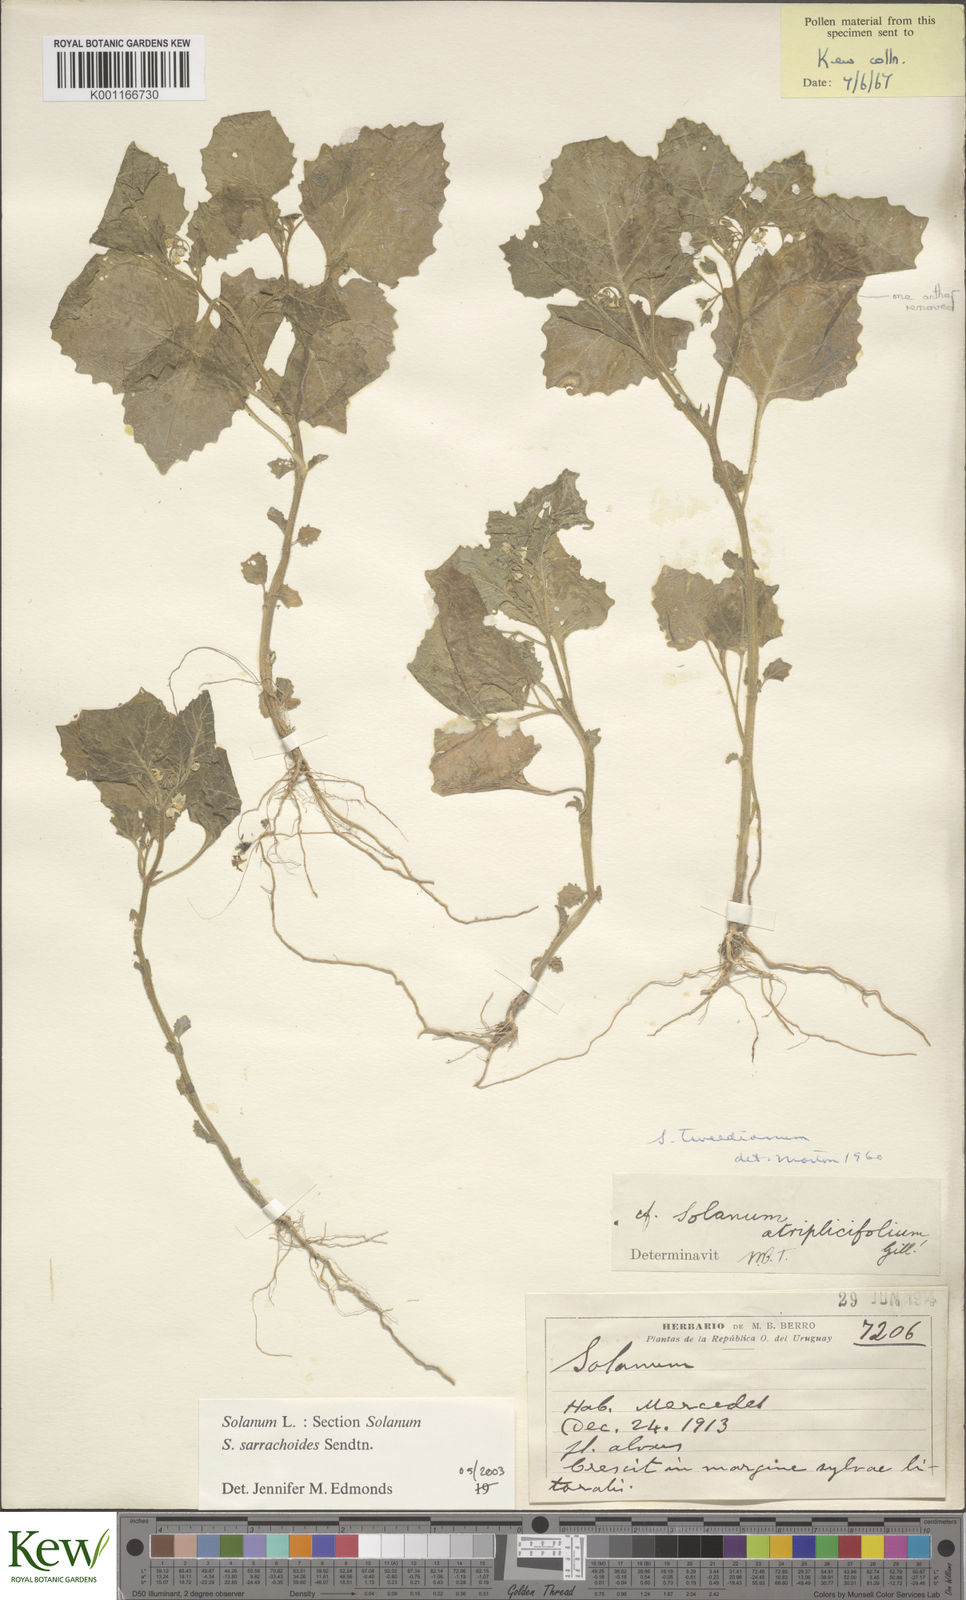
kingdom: Plantae
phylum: Tracheophyta
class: Magnoliopsida
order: Solanales
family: Solanaceae
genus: Solanum
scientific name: Solanum sarrachoides
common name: Leafy-fruited nightshade
